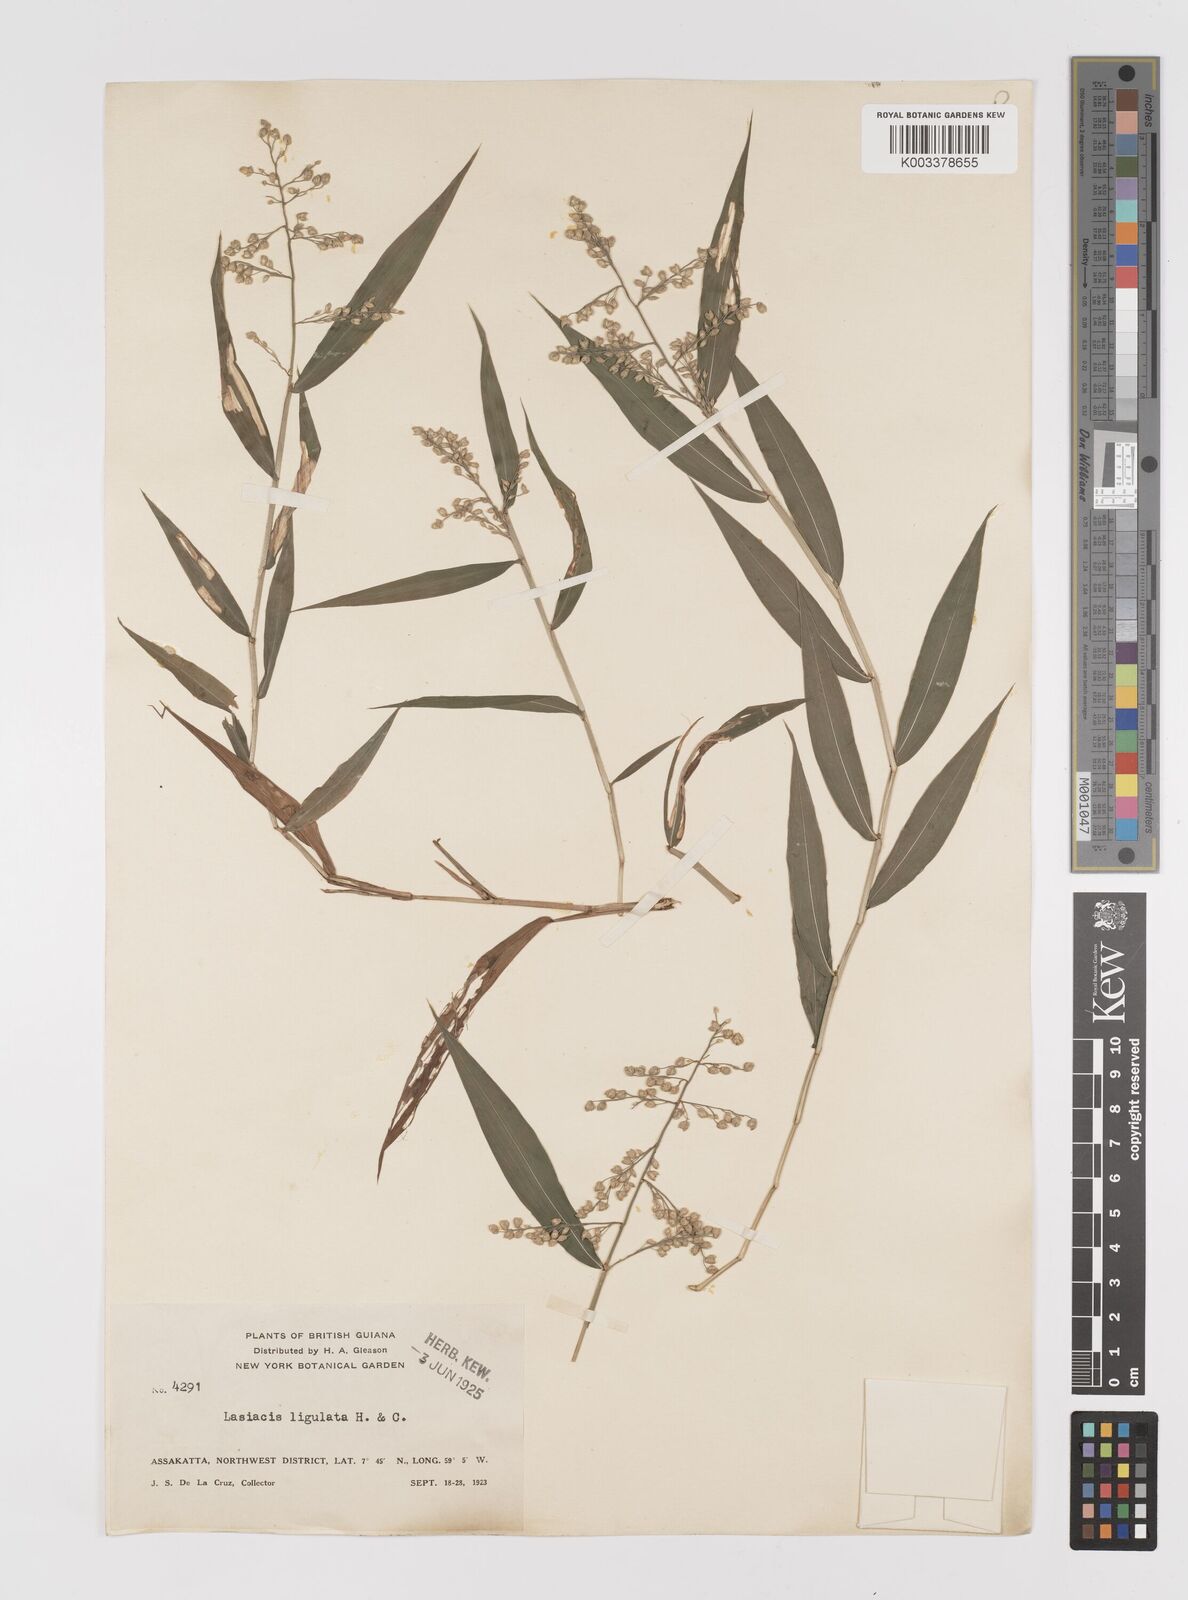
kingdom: Plantae
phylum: Tracheophyta
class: Liliopsida
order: Poales
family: Poaceae
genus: Lasiacis
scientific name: Lasiacis ligulata
